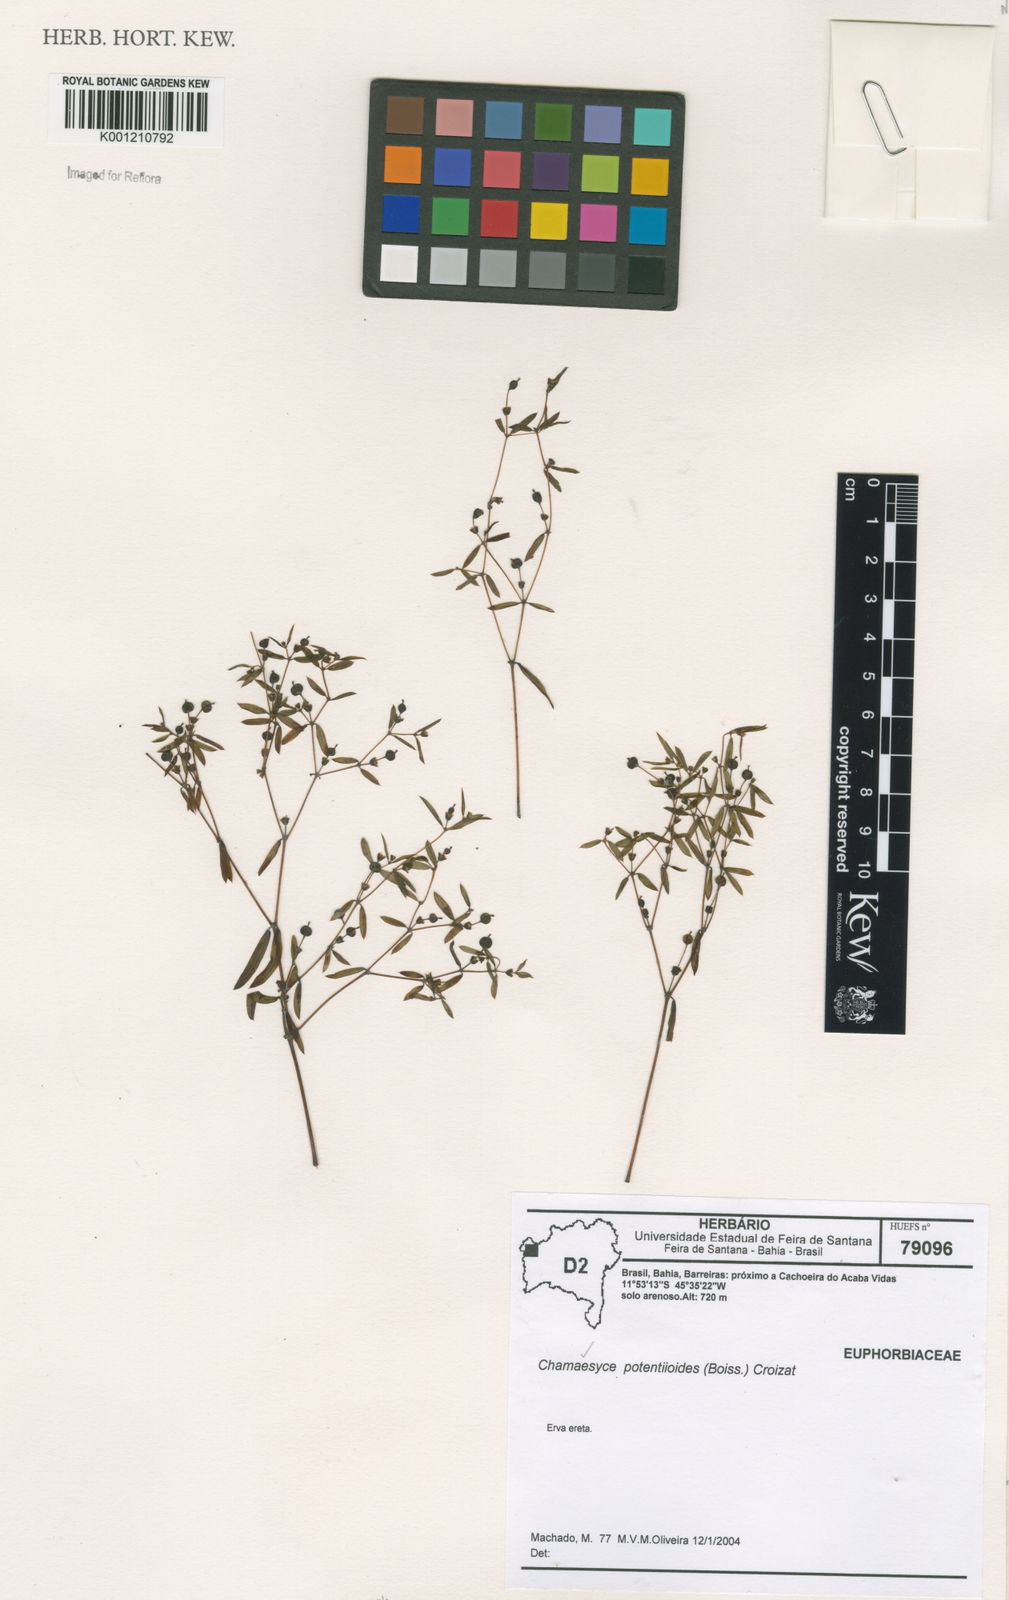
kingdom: Plantae
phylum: Tracheophyta
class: Magnoliopsida
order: Malpighiales
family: Euphorbiaceae
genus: Euphorbia
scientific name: Euphorbia potentilloides
